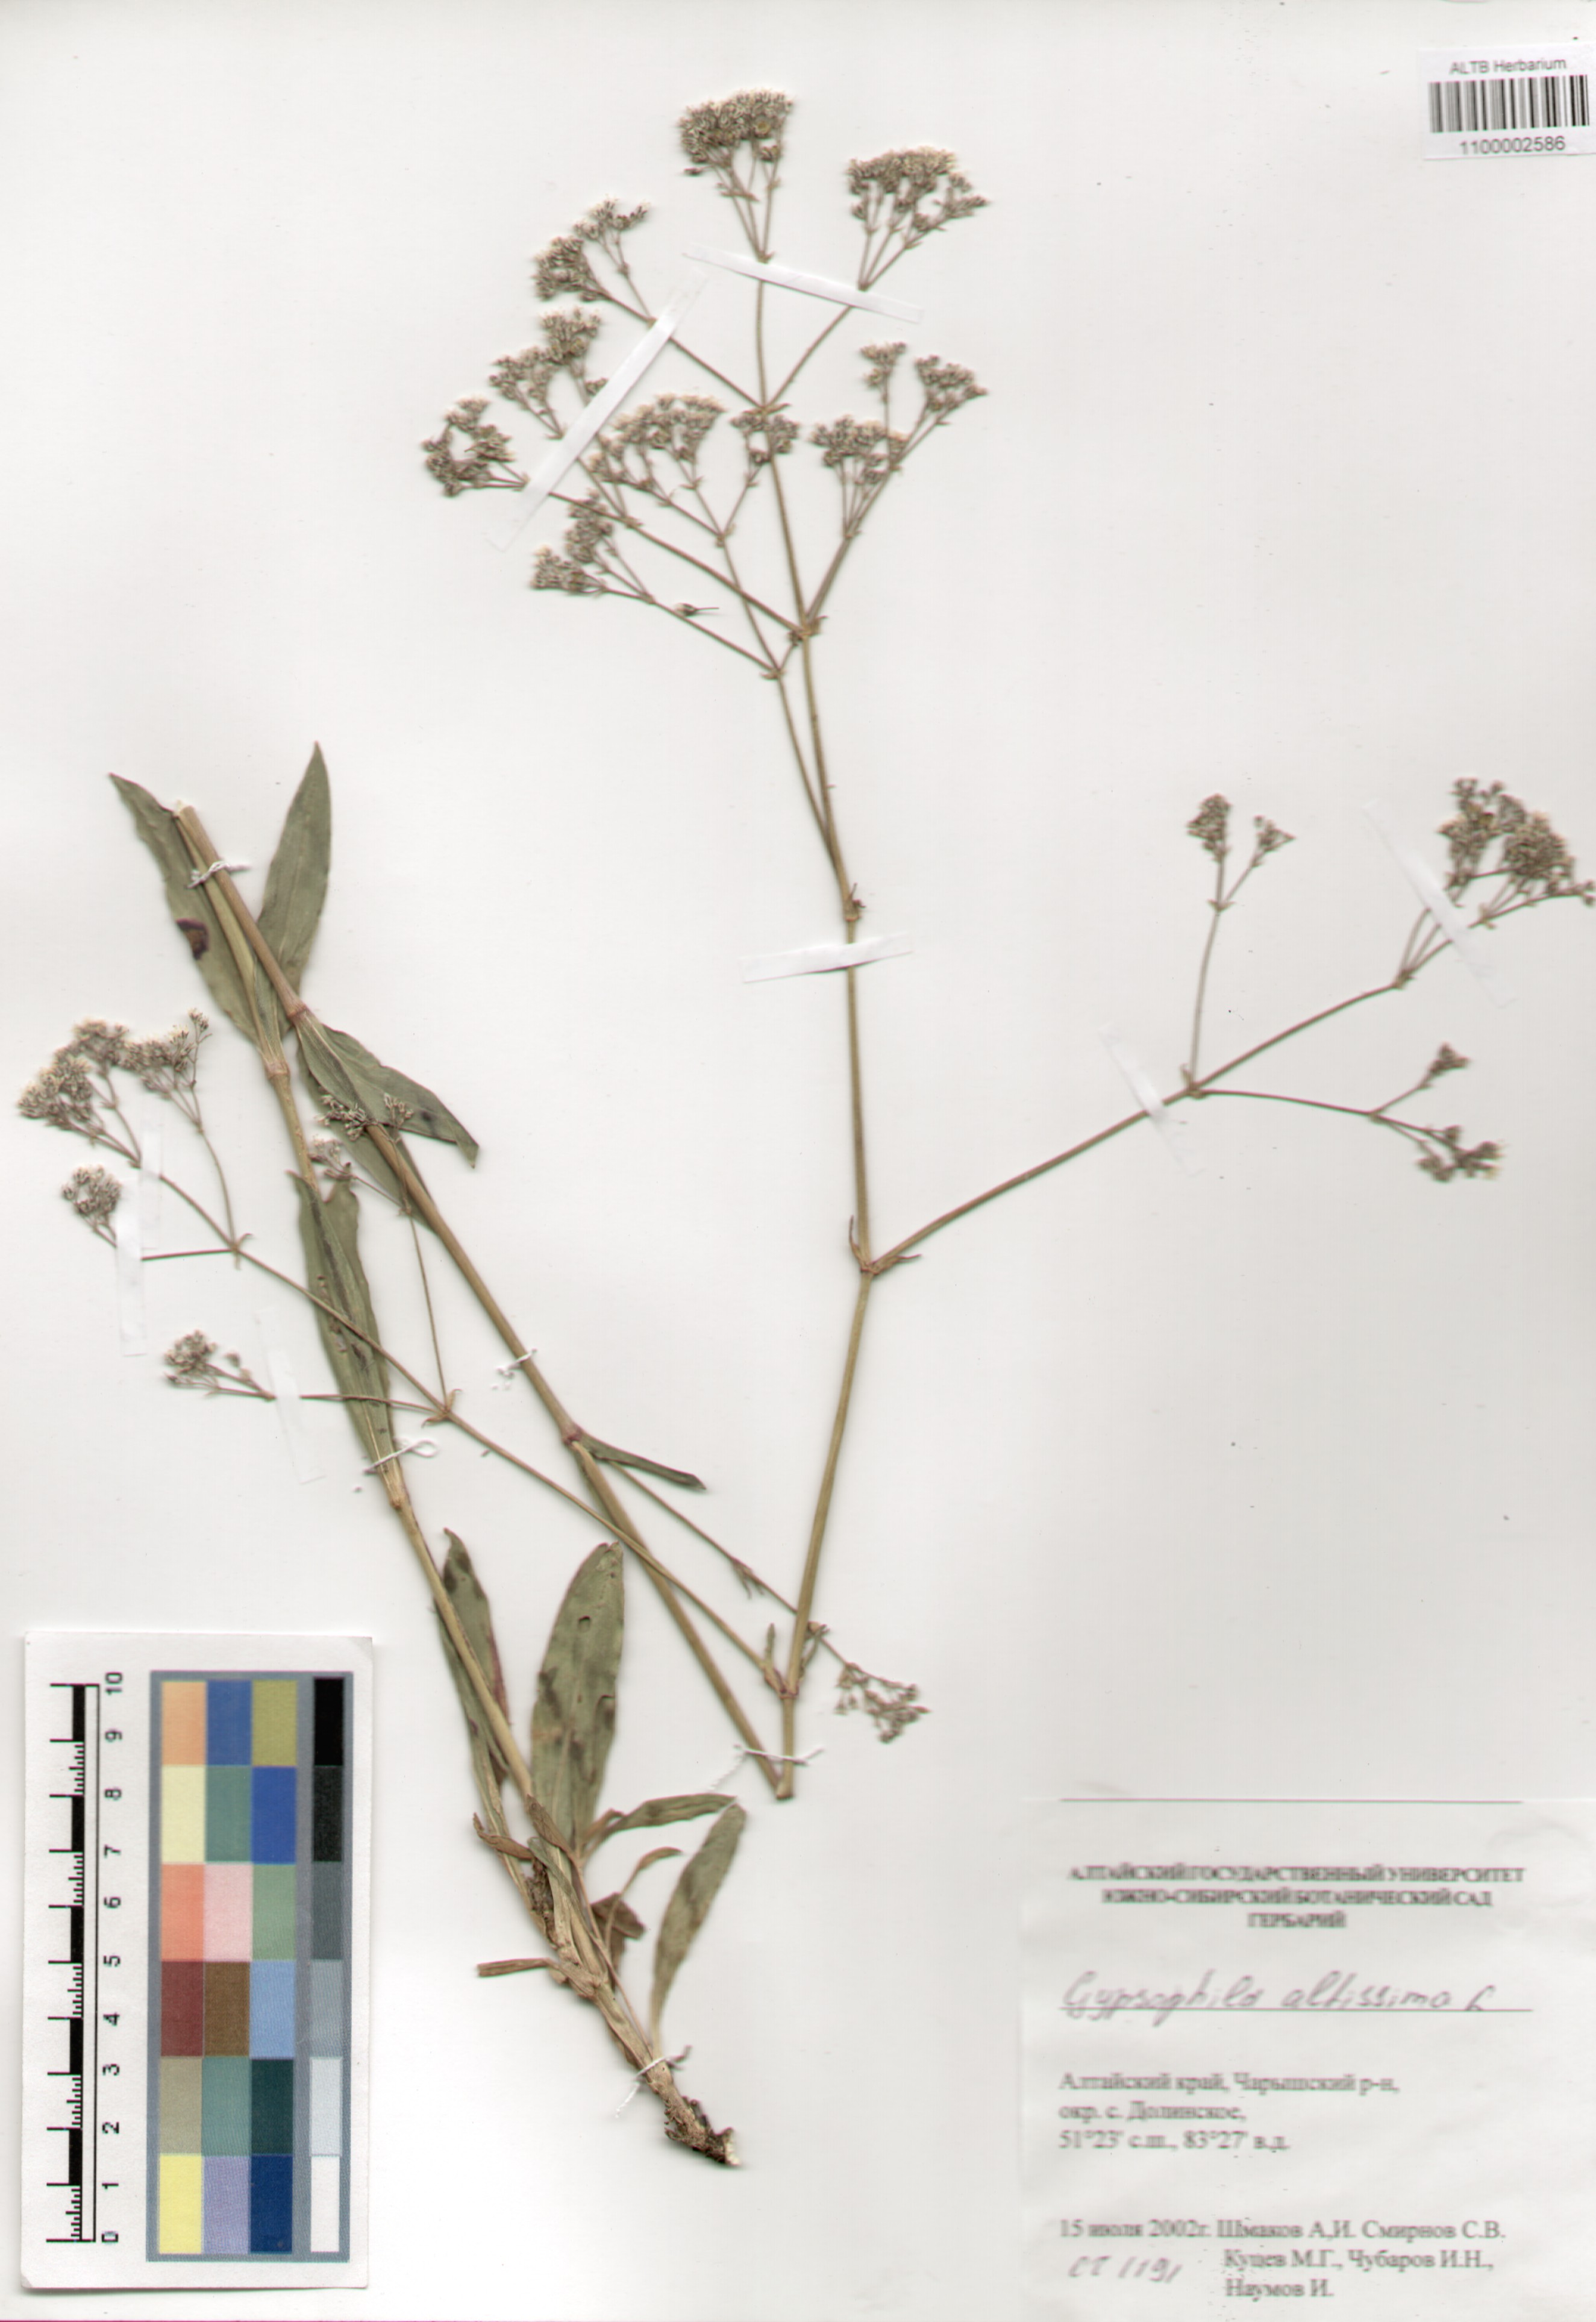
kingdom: Plantae
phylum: Tracheophyta
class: Magnoliopsida
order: Caryophyllales
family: Caryophyllaceae
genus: Gypsophila
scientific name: Gypsophila altissima
